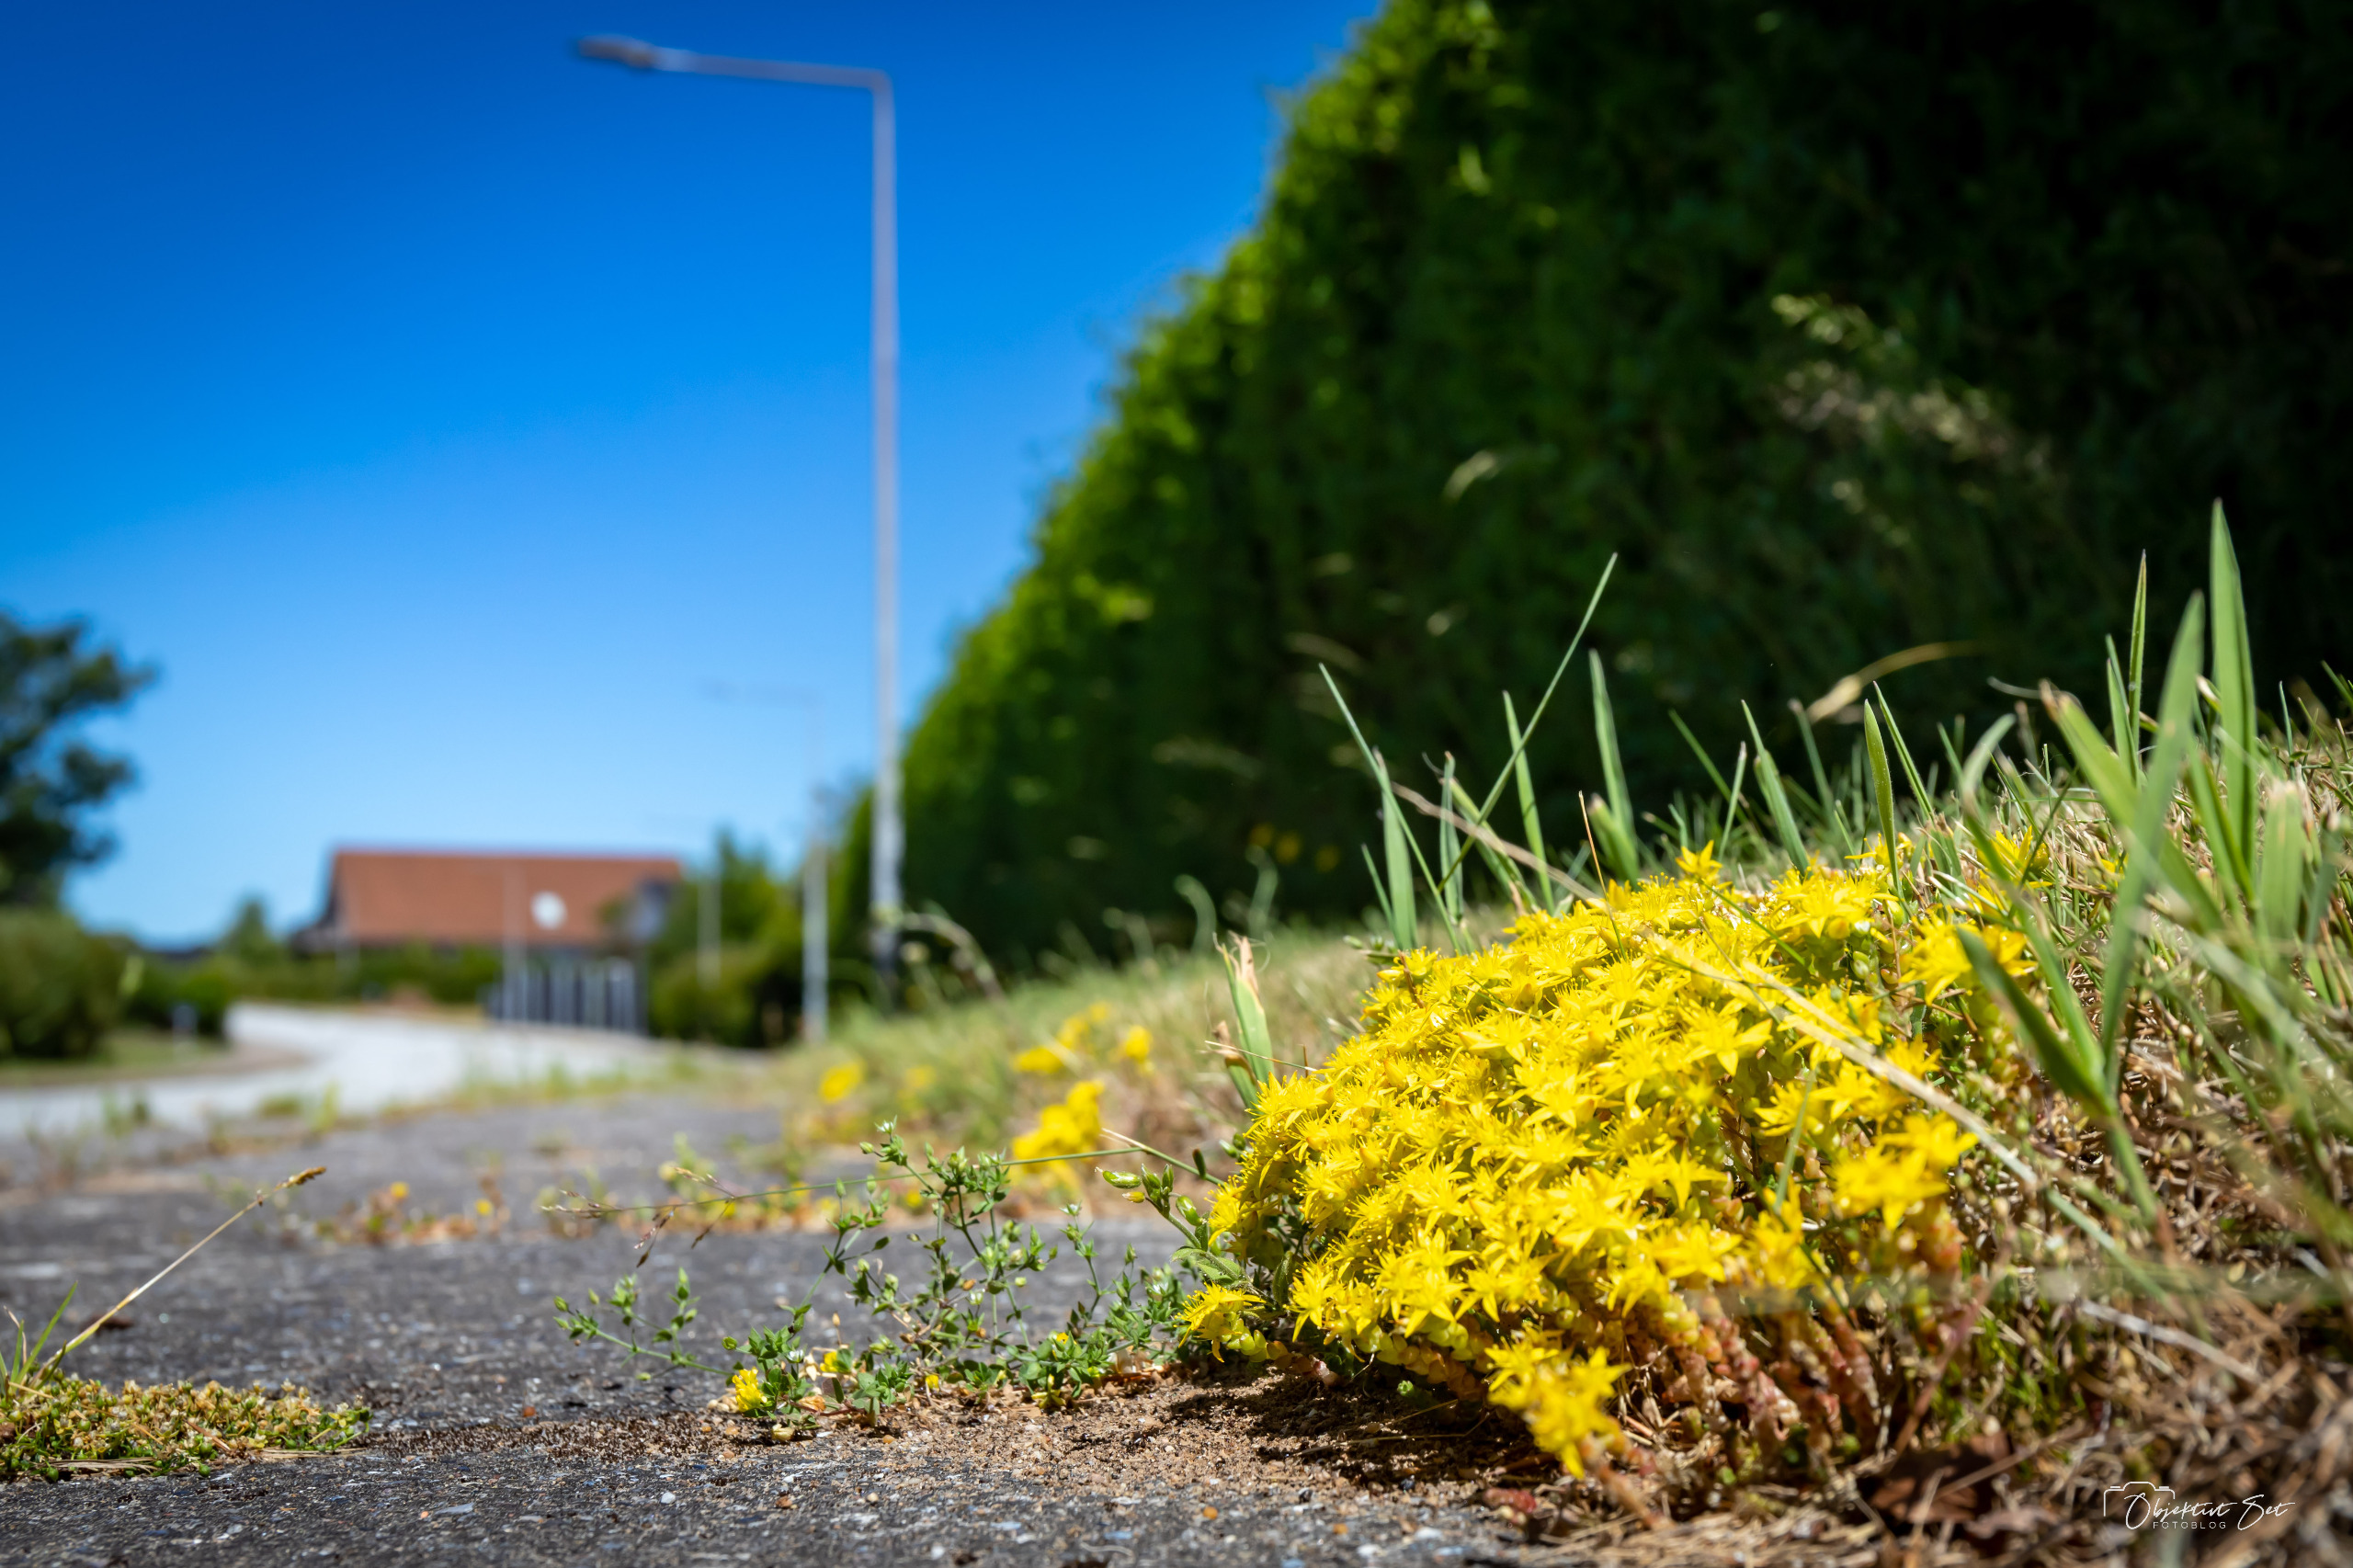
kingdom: Plantae
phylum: Tracheophyta
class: Magnoliopsida
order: Saxifragales
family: Crassulaceae
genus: Sedum
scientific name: Sedum acre
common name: Bidende stenurt
